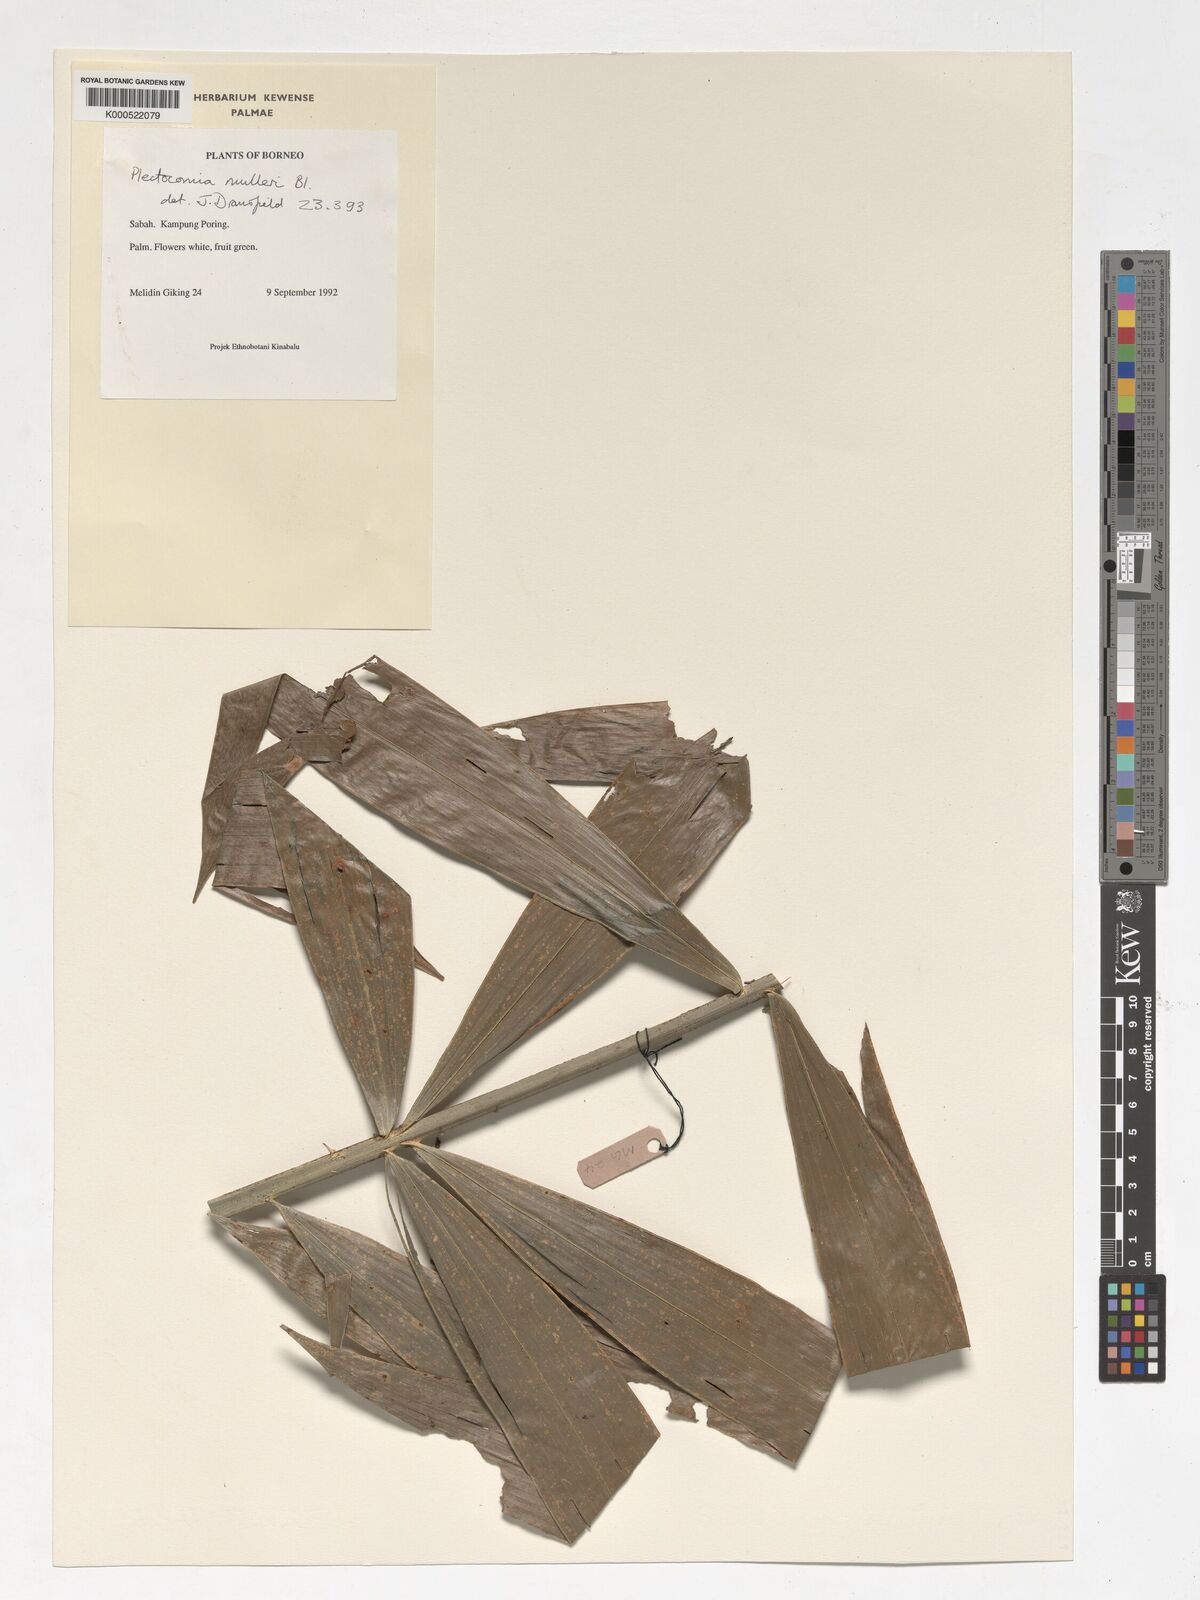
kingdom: Plantae
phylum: Tracheophyta
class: Liliopsida
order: Arecales
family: Arecaceae
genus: Plectocomia
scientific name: Plectocomia mulleri
